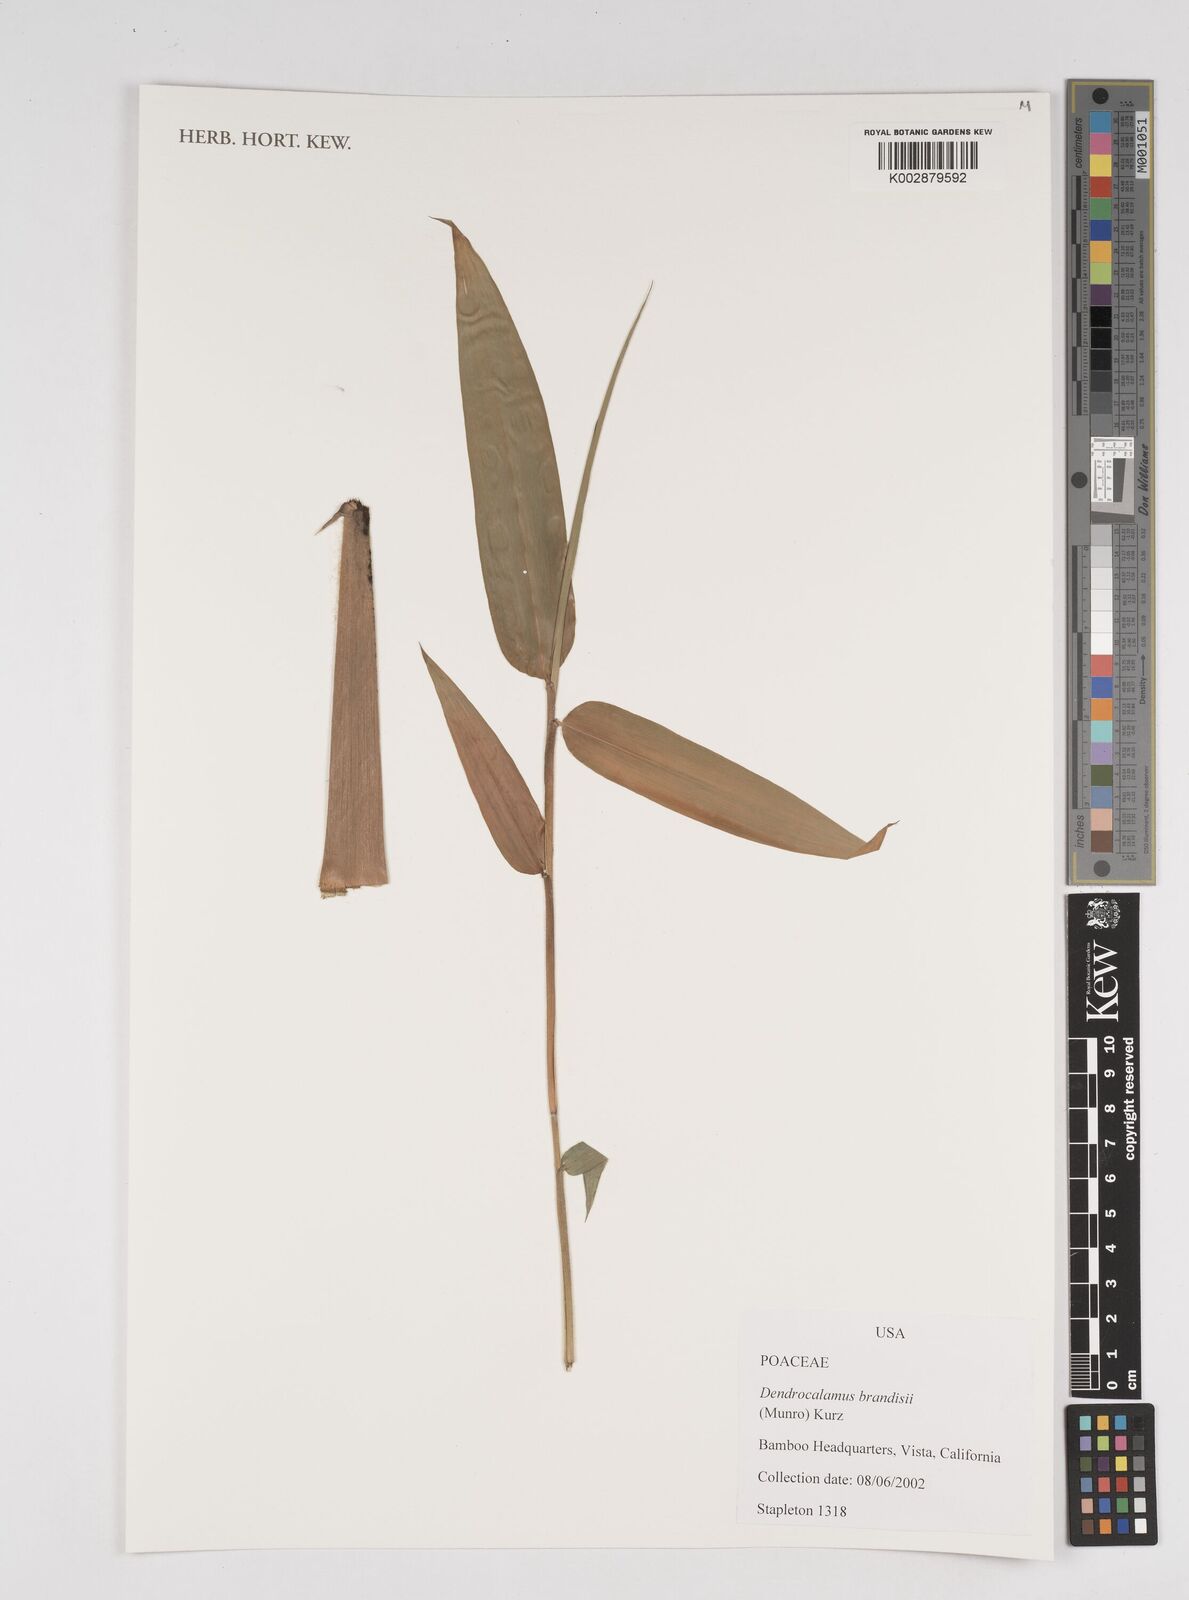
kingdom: Plantae
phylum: Tracheophyta
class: Liliopsida
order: Poales
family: Poaceae
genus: Dendrocalamus
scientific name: Dendrocalamus brandisii
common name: Velvetleaf bamboo
